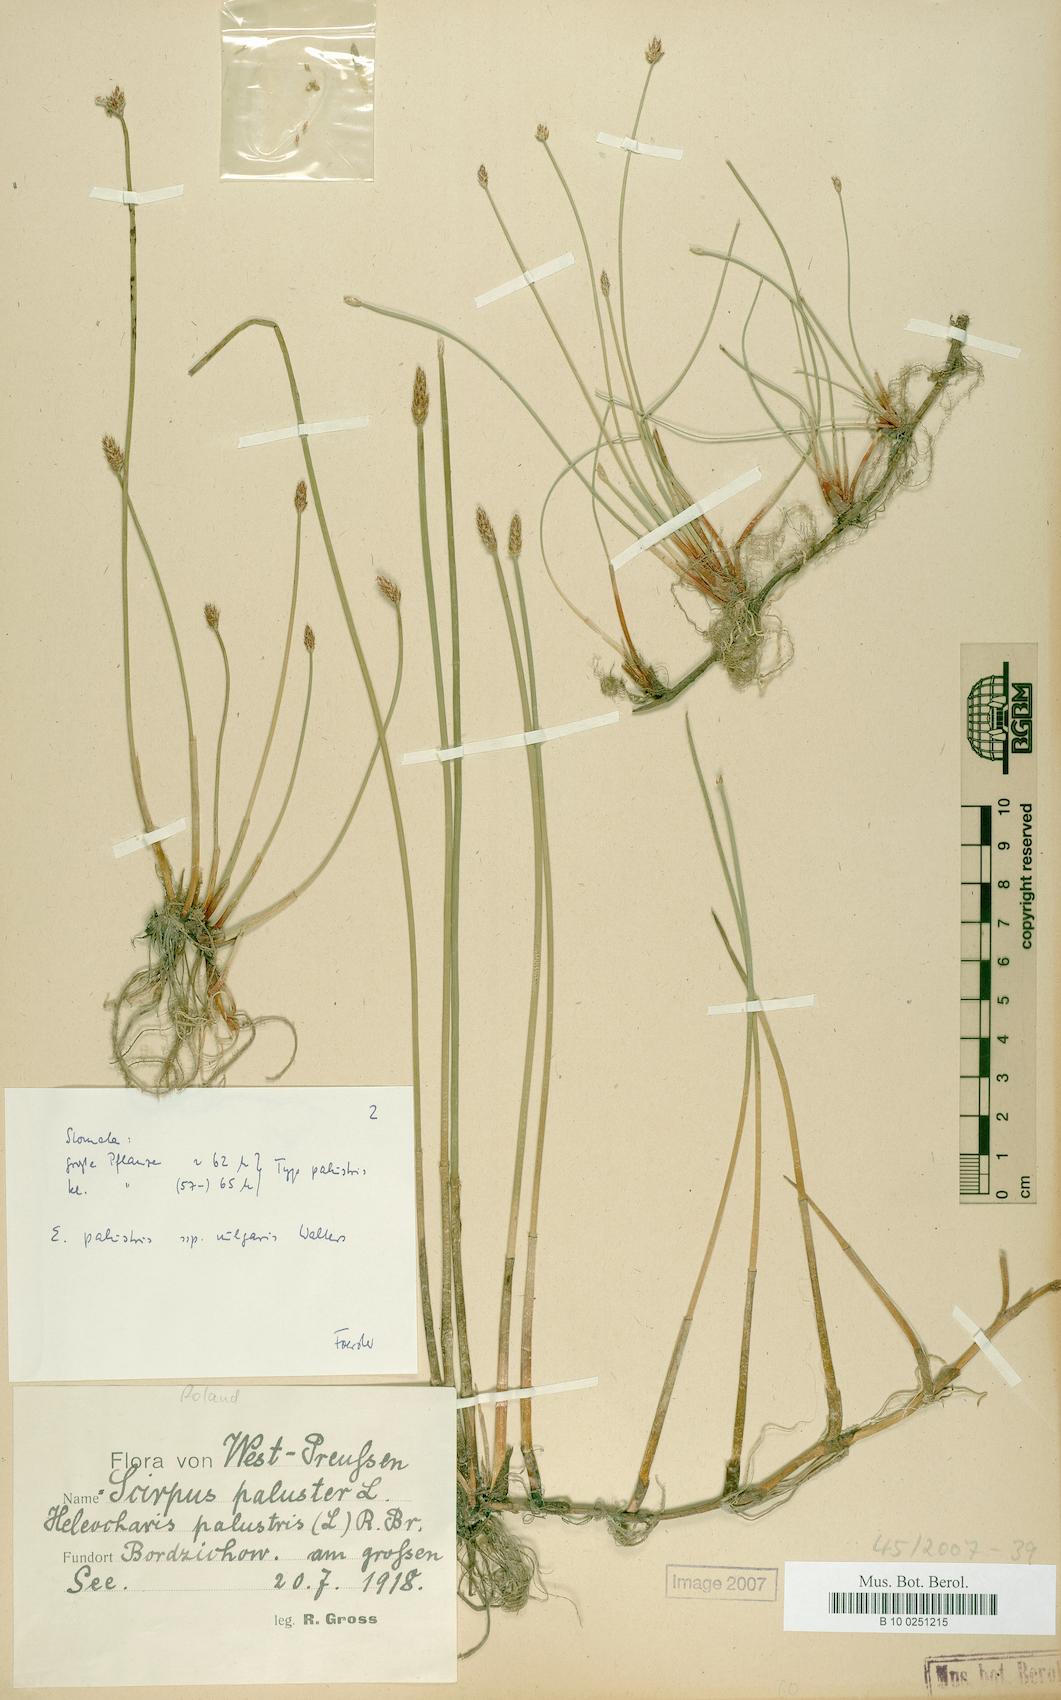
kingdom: Plantae
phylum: Tracheophyta
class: Liliopsida
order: Poales
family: Cyperaceae
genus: Eleocharis
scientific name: Eleocharis palustris
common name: Common spike-rush
